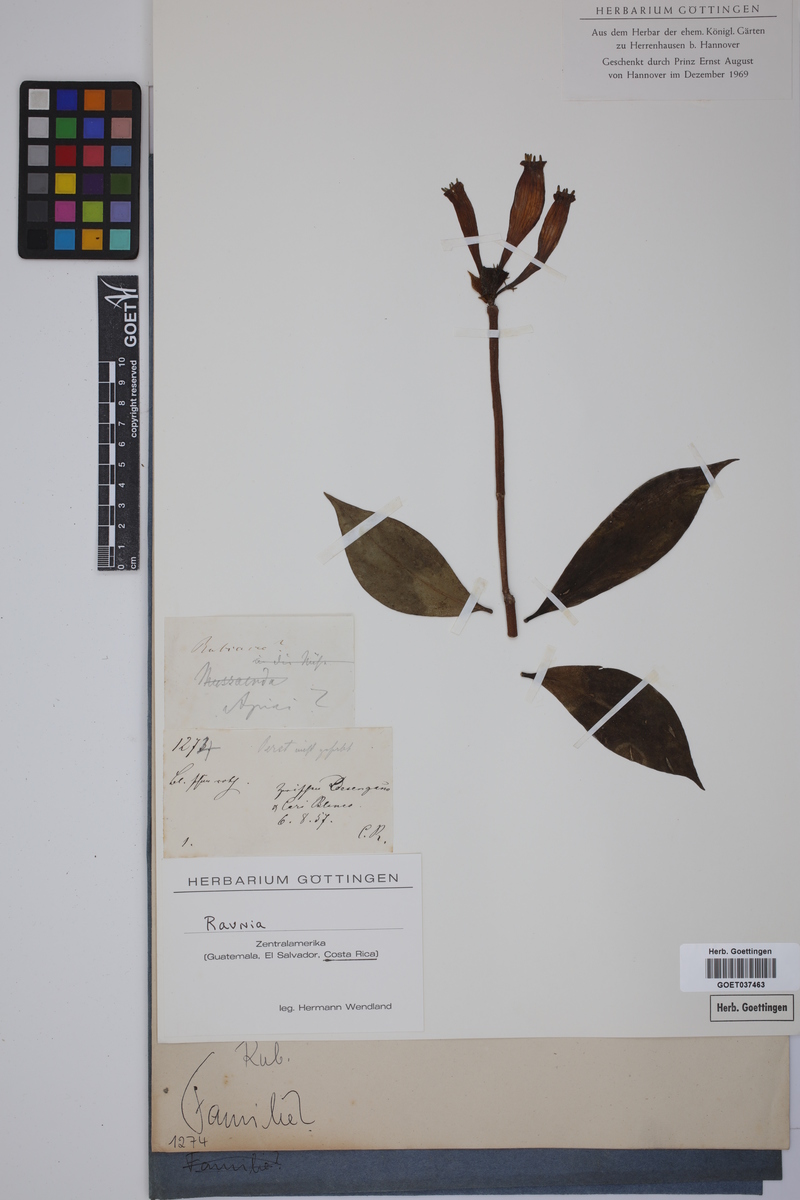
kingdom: Plantae
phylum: Tracheophyta
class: Magnoliopsida
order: Gentianales
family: Rubiaceae
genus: Hillia
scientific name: Hillia
